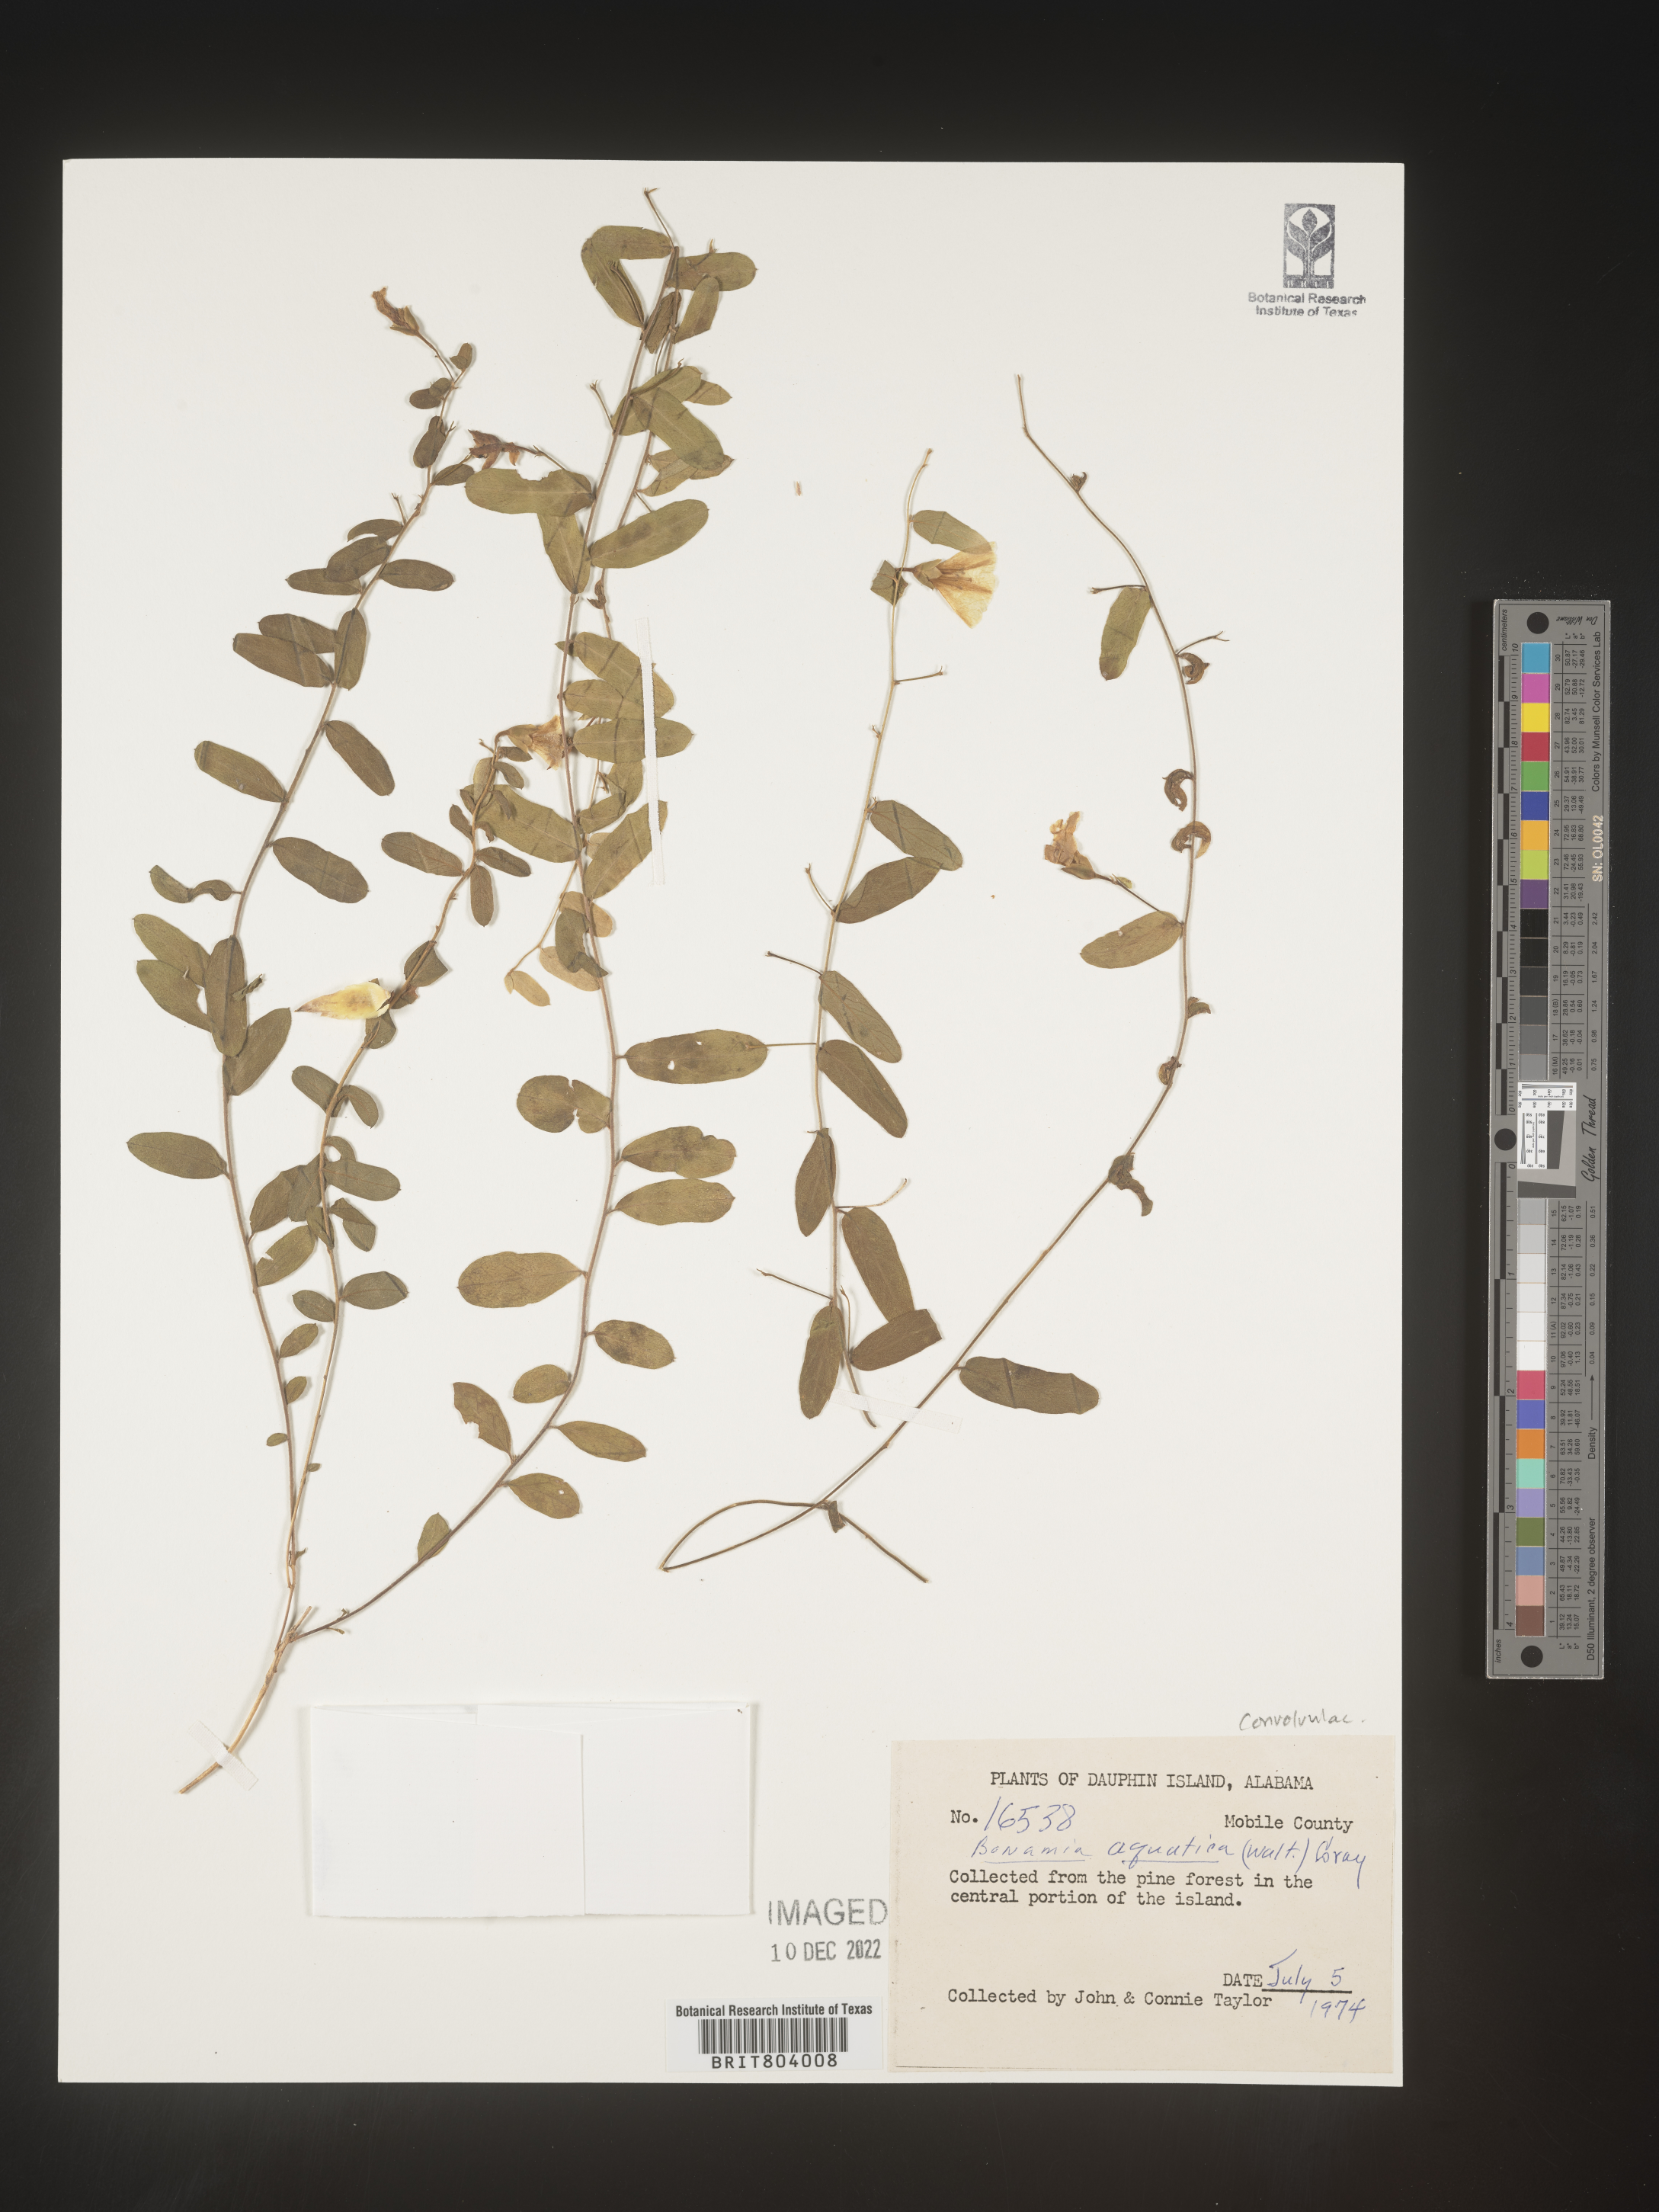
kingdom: Plantae
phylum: Tracheophyta
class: Magnoliopsida
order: Solanales
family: Convolvulaceae
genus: Bonamia
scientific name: Bonamia
